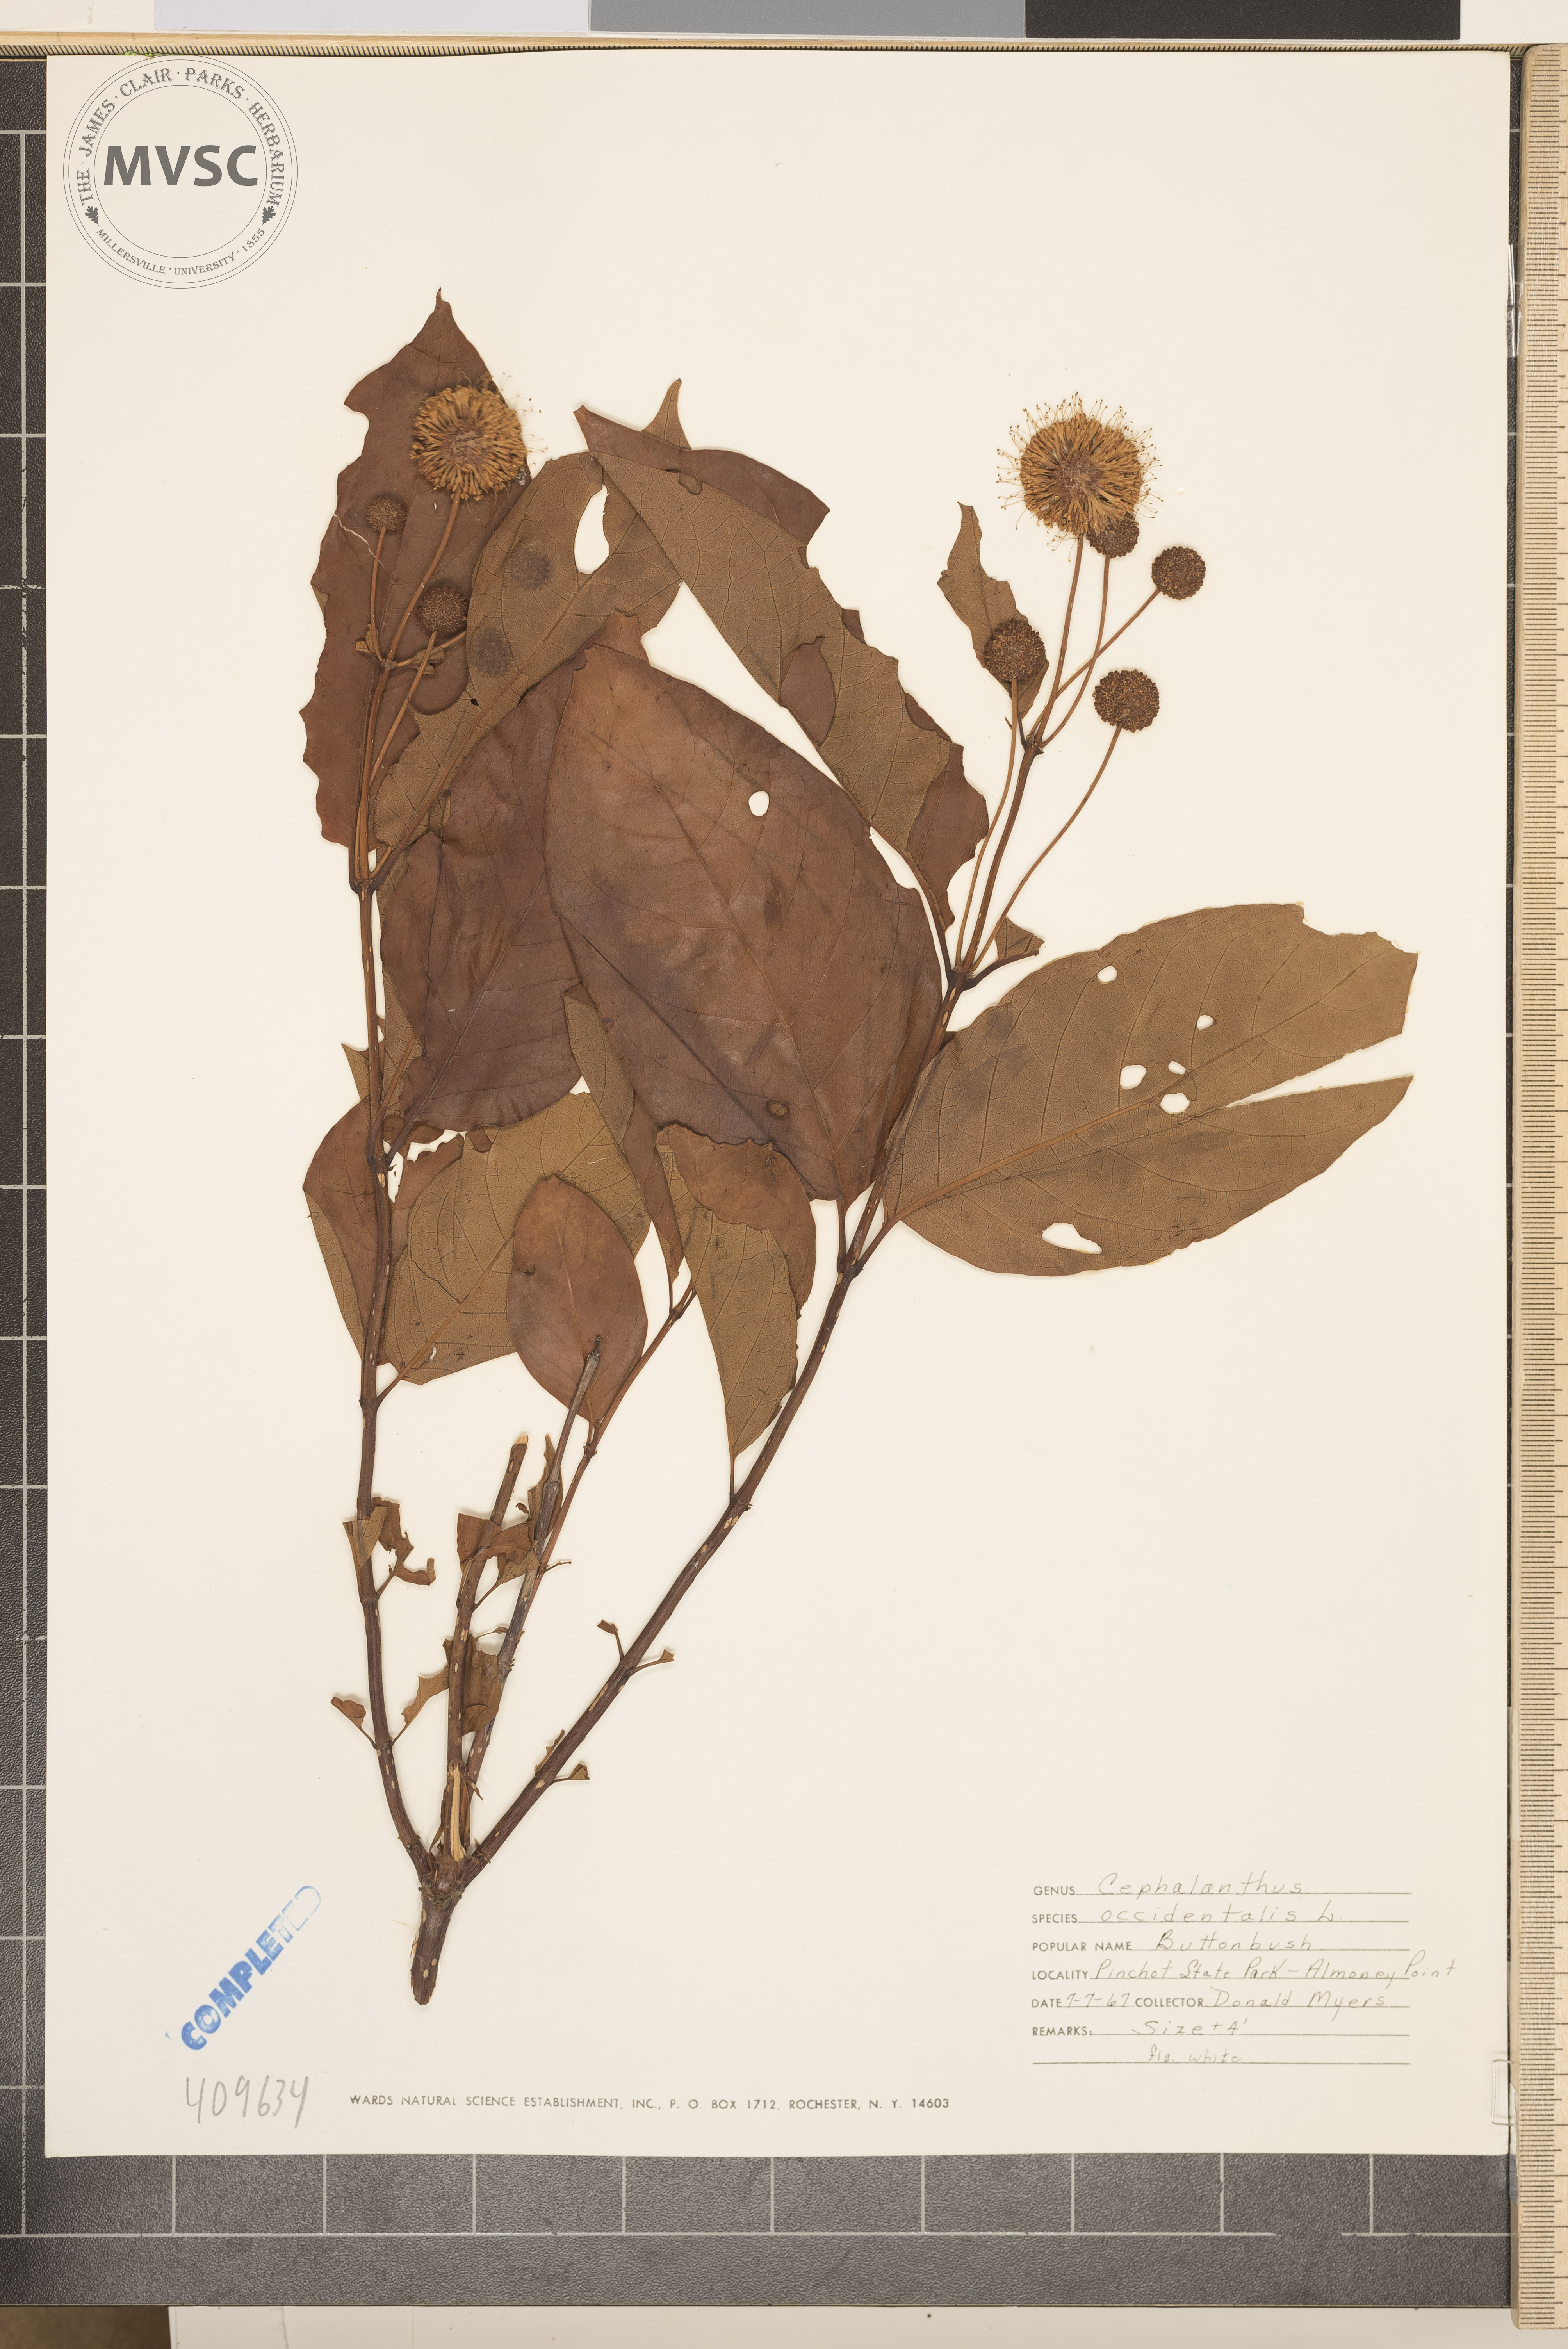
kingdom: Plantae
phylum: Tracheophyta
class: Magnoliopsida
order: Gentianales
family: Rubiaceae
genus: Cephalanthus
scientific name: Cephalanthus occidentalis
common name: Button-willow
